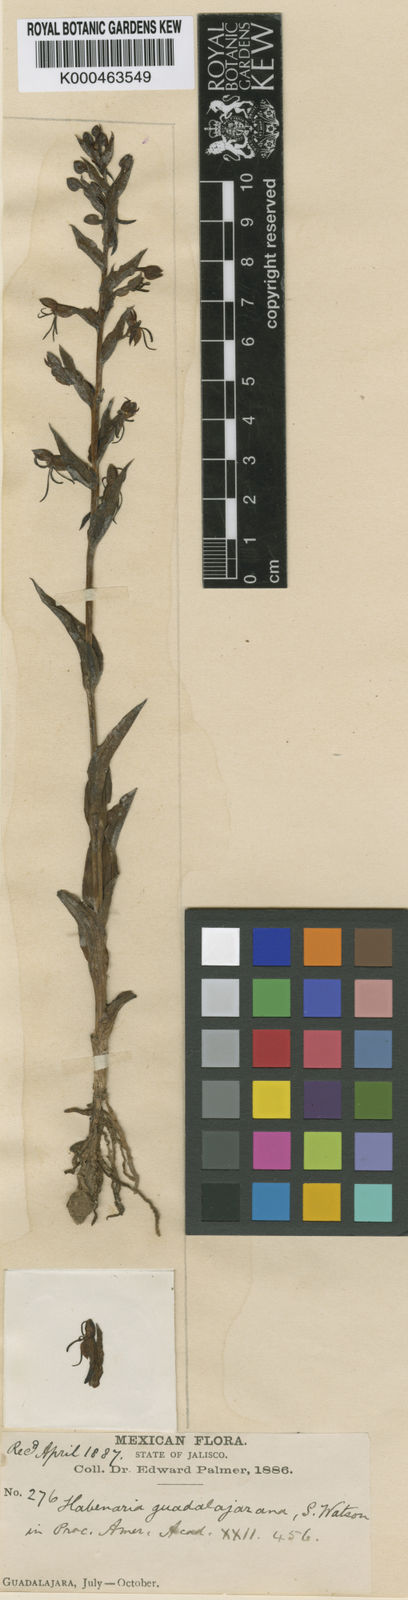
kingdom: Plantae
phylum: Tracheophyta
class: Liliopsida
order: Asparagales
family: Orchidaceae
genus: Habenaria
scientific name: Habenaria guadalajarana
